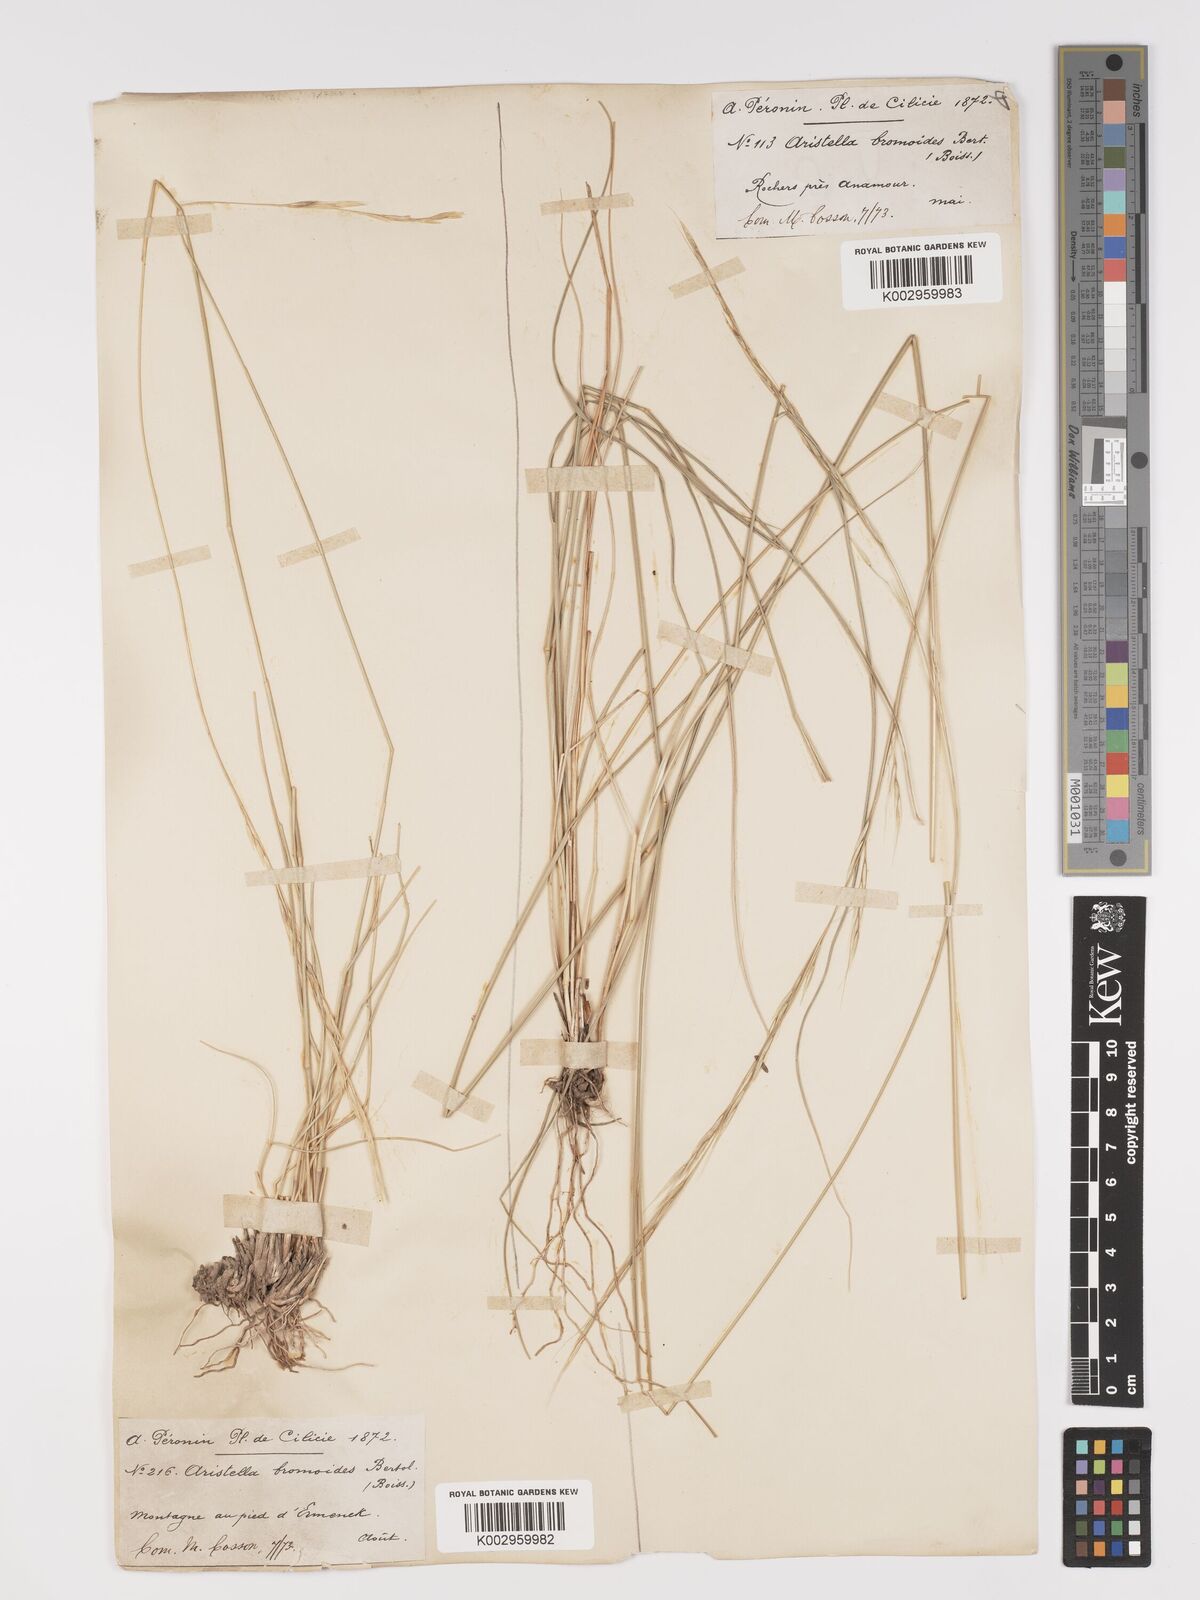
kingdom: Plantae
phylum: Tracheophyta
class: Liliopsida
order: Poales
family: Poaceae
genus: Achnatherum
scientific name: Achnatherum bromoides
